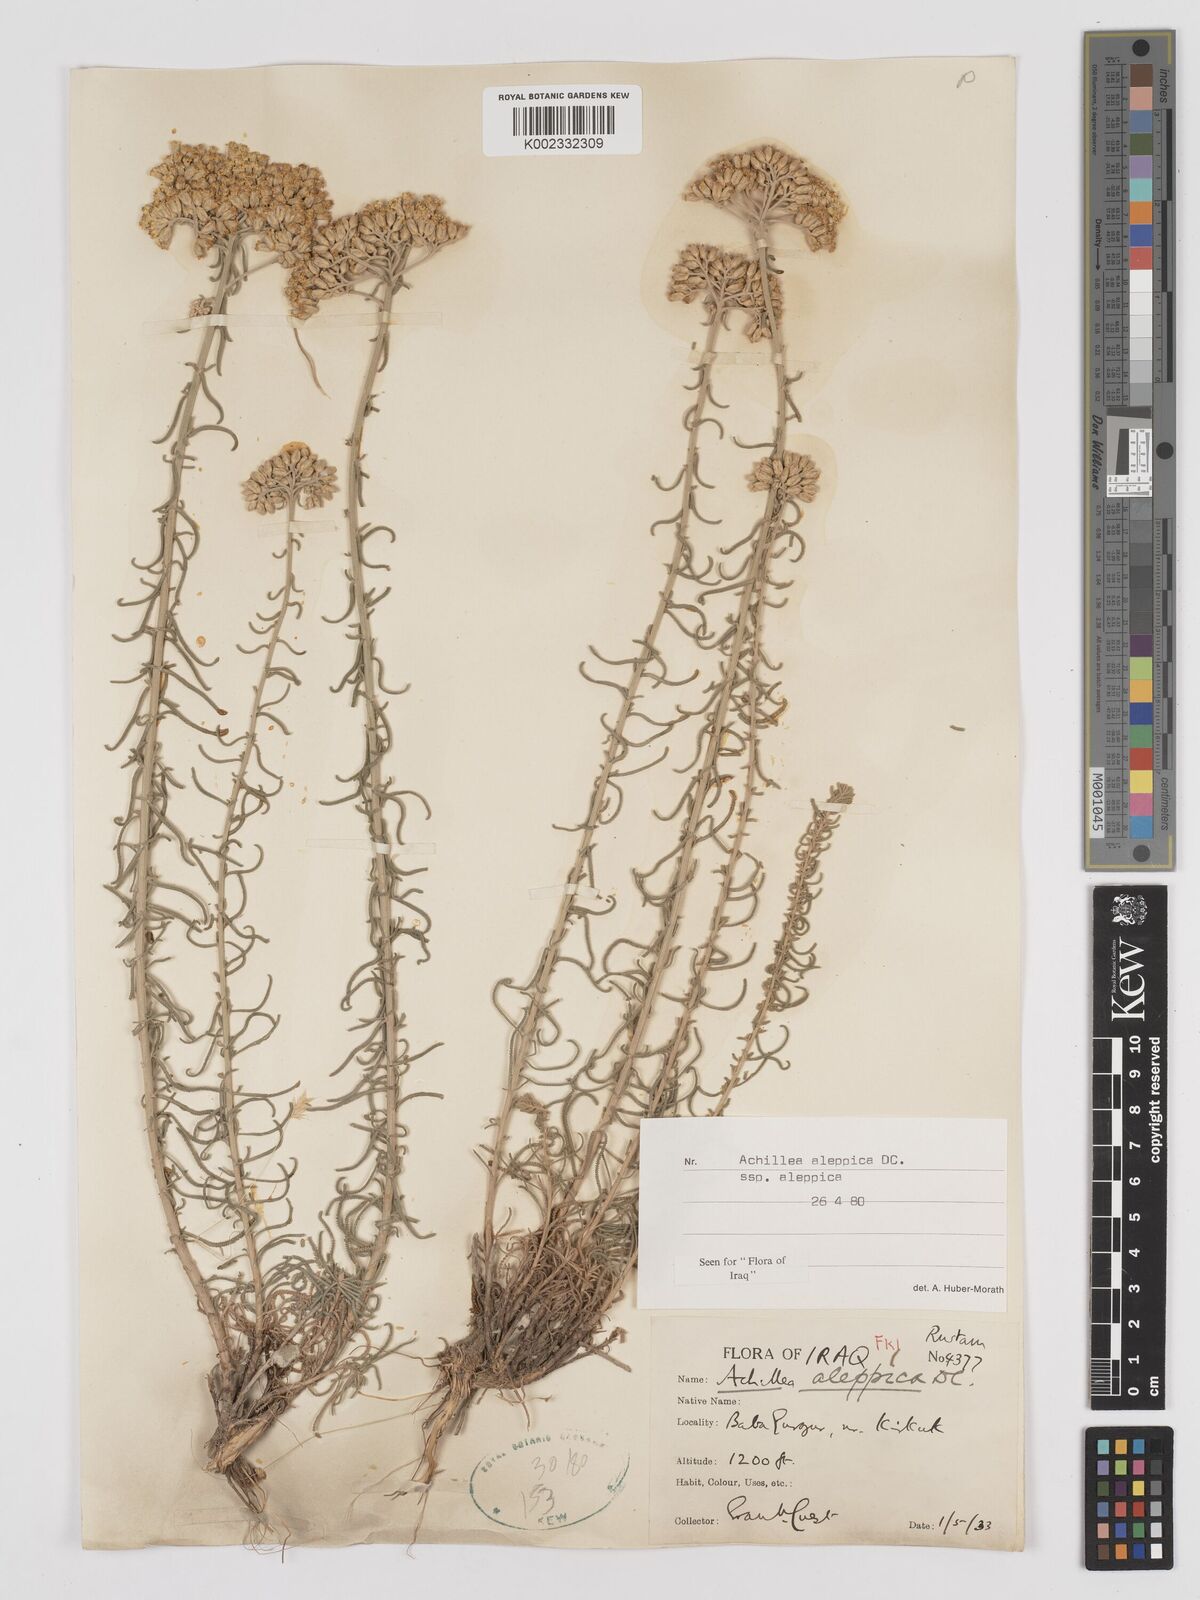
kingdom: Plantae
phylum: Tracheophyta
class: Magnoliopsida
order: Asterales
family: Asteraceae
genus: Achillea
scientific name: Achillea aleppica
